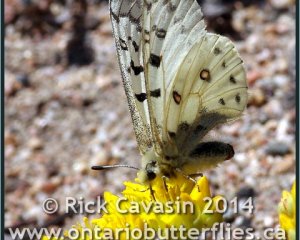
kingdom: Animalia
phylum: Arthropoda
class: Insecta
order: Lepidoptera
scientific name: Lepidoptera
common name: Butterflies
